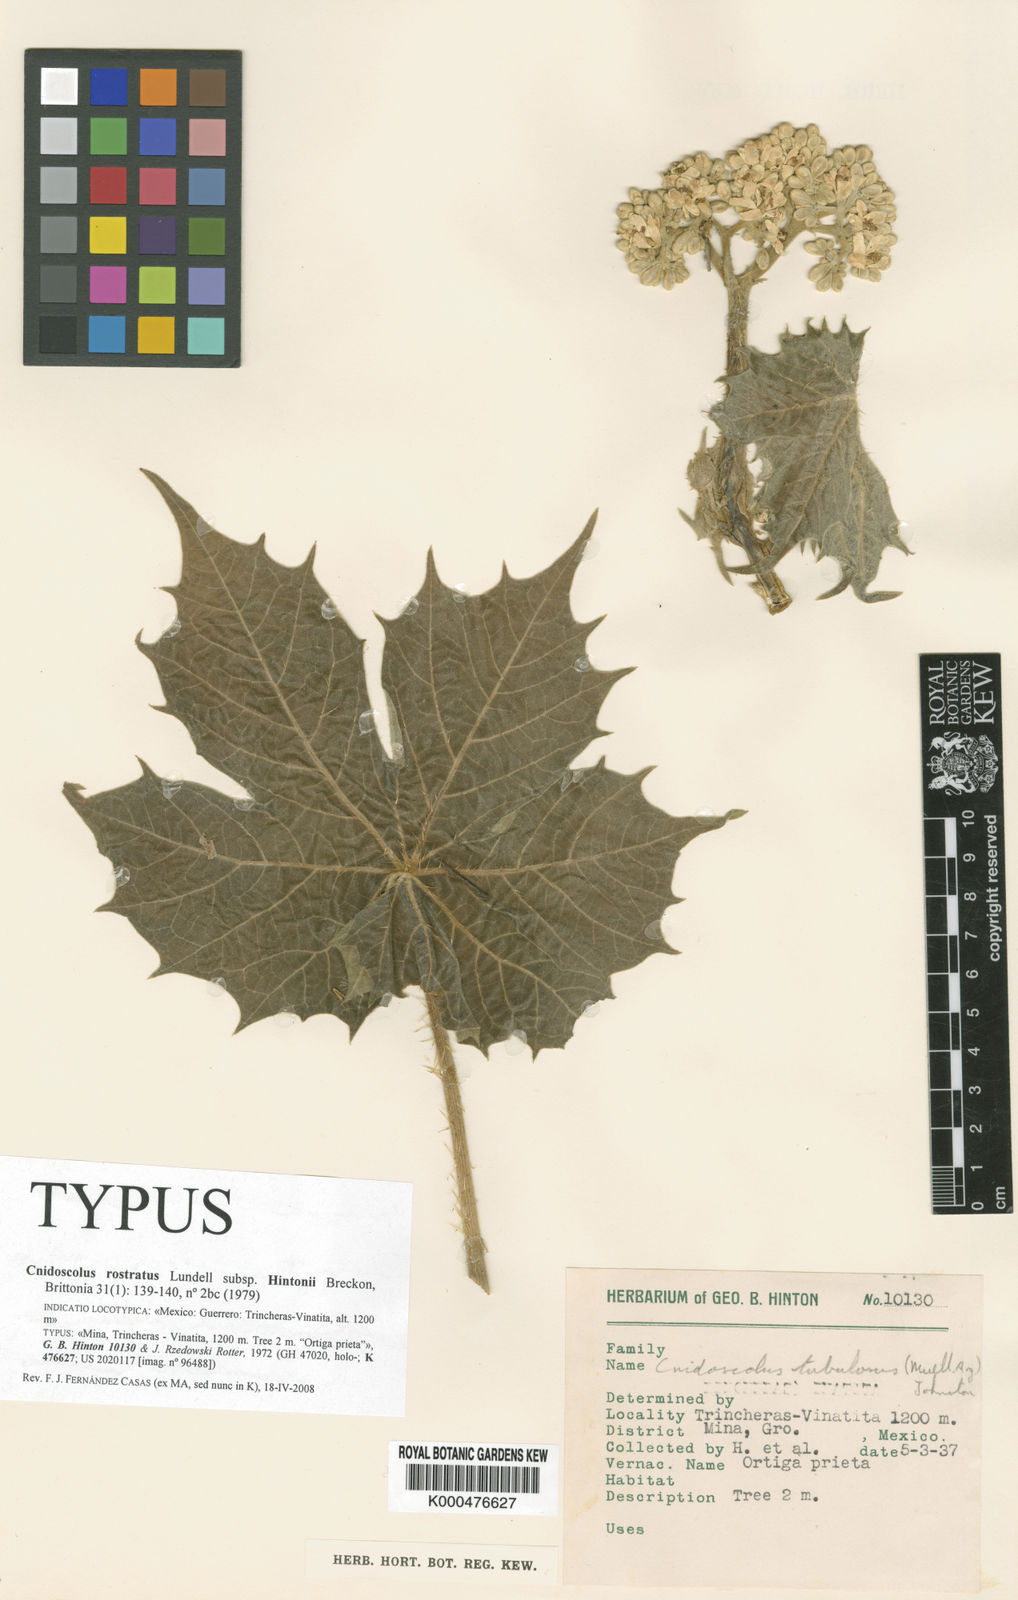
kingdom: Plantae
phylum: Tracheophyta
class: Magnoliopsida
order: Malpighiales
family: Euphorbiaceae
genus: Cnidoscolus
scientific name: Cnidoscolus rostratus
